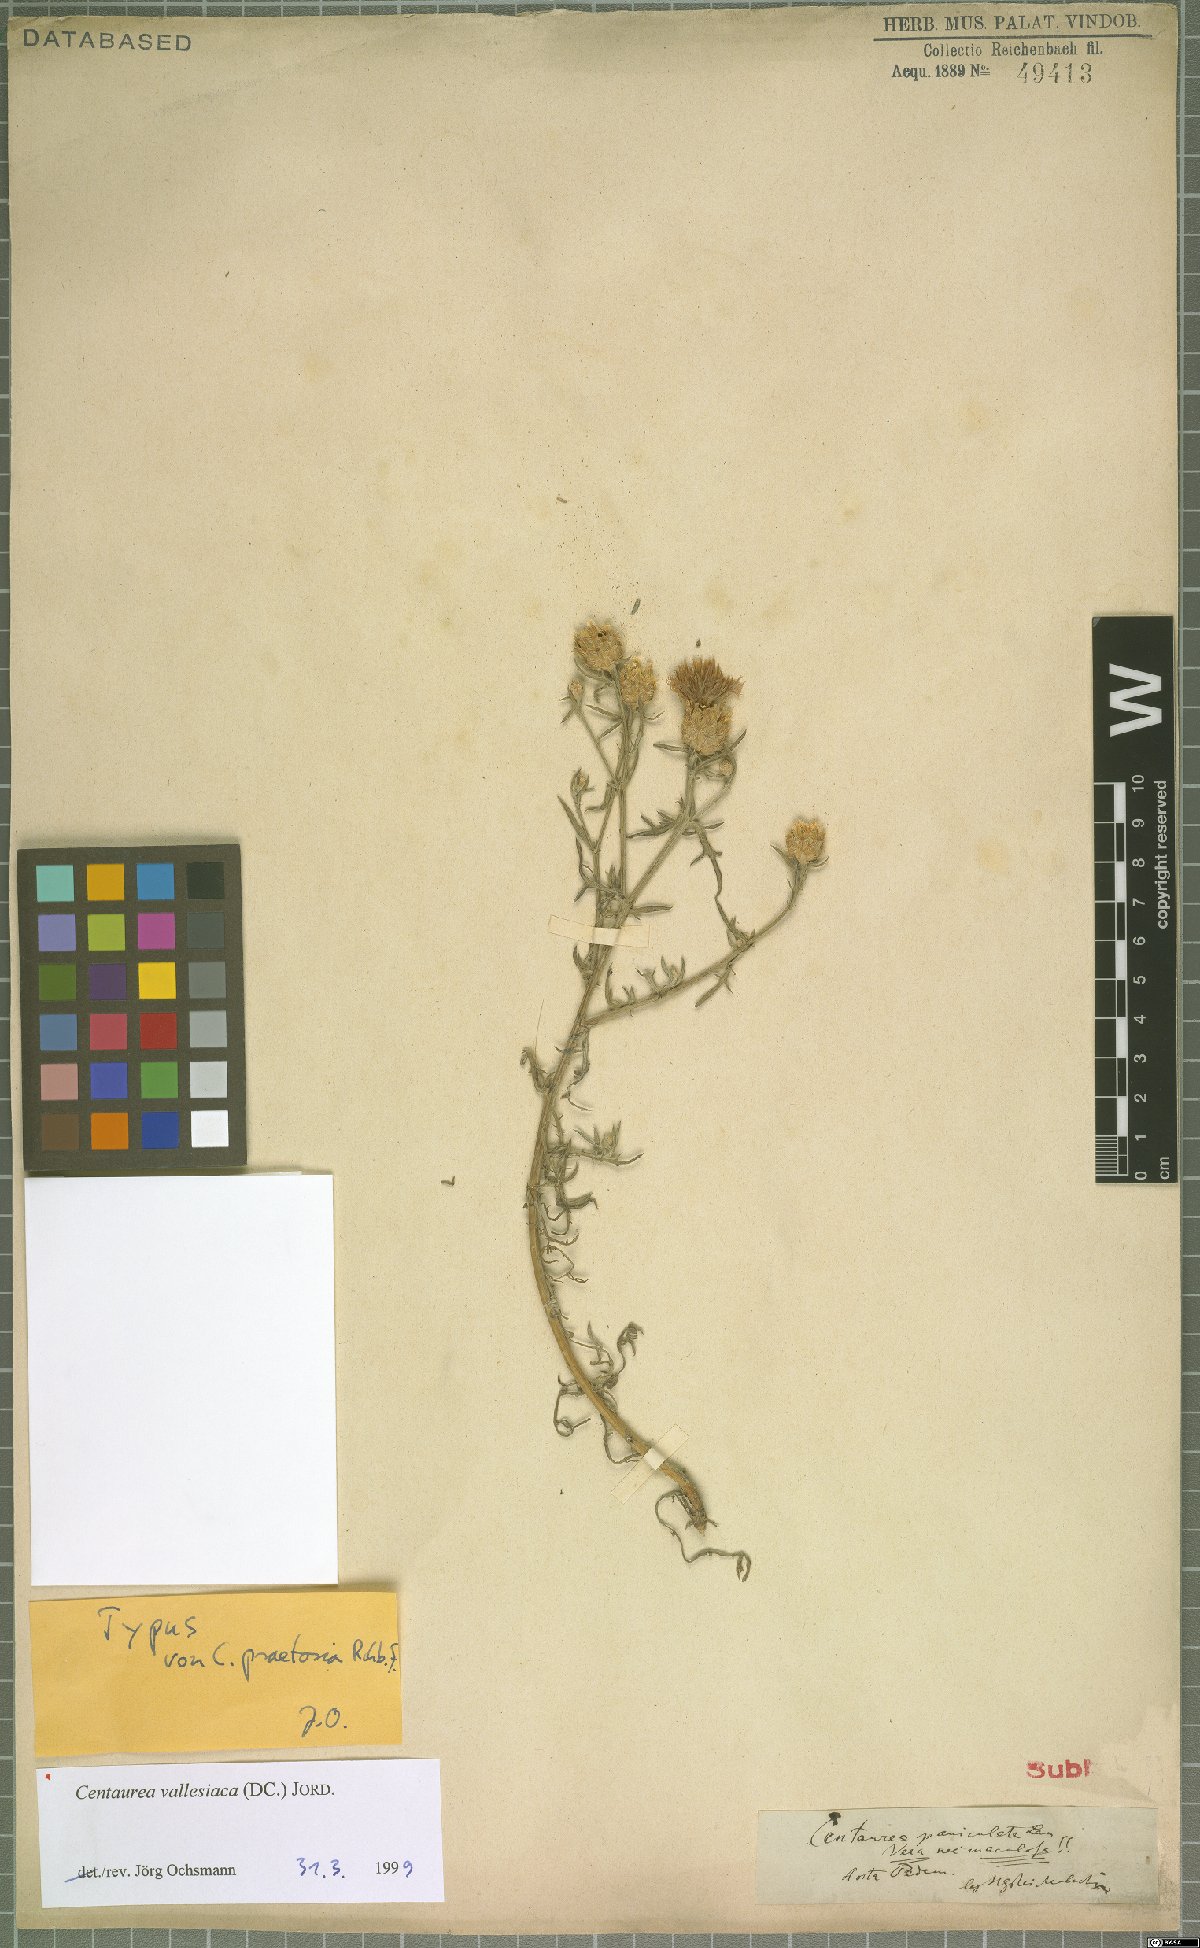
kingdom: Plantae
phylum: Tracheophyta
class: Magnoliopsida
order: Asterales
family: Asteraceae
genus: Centaurea
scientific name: Centaurea valesiaca
